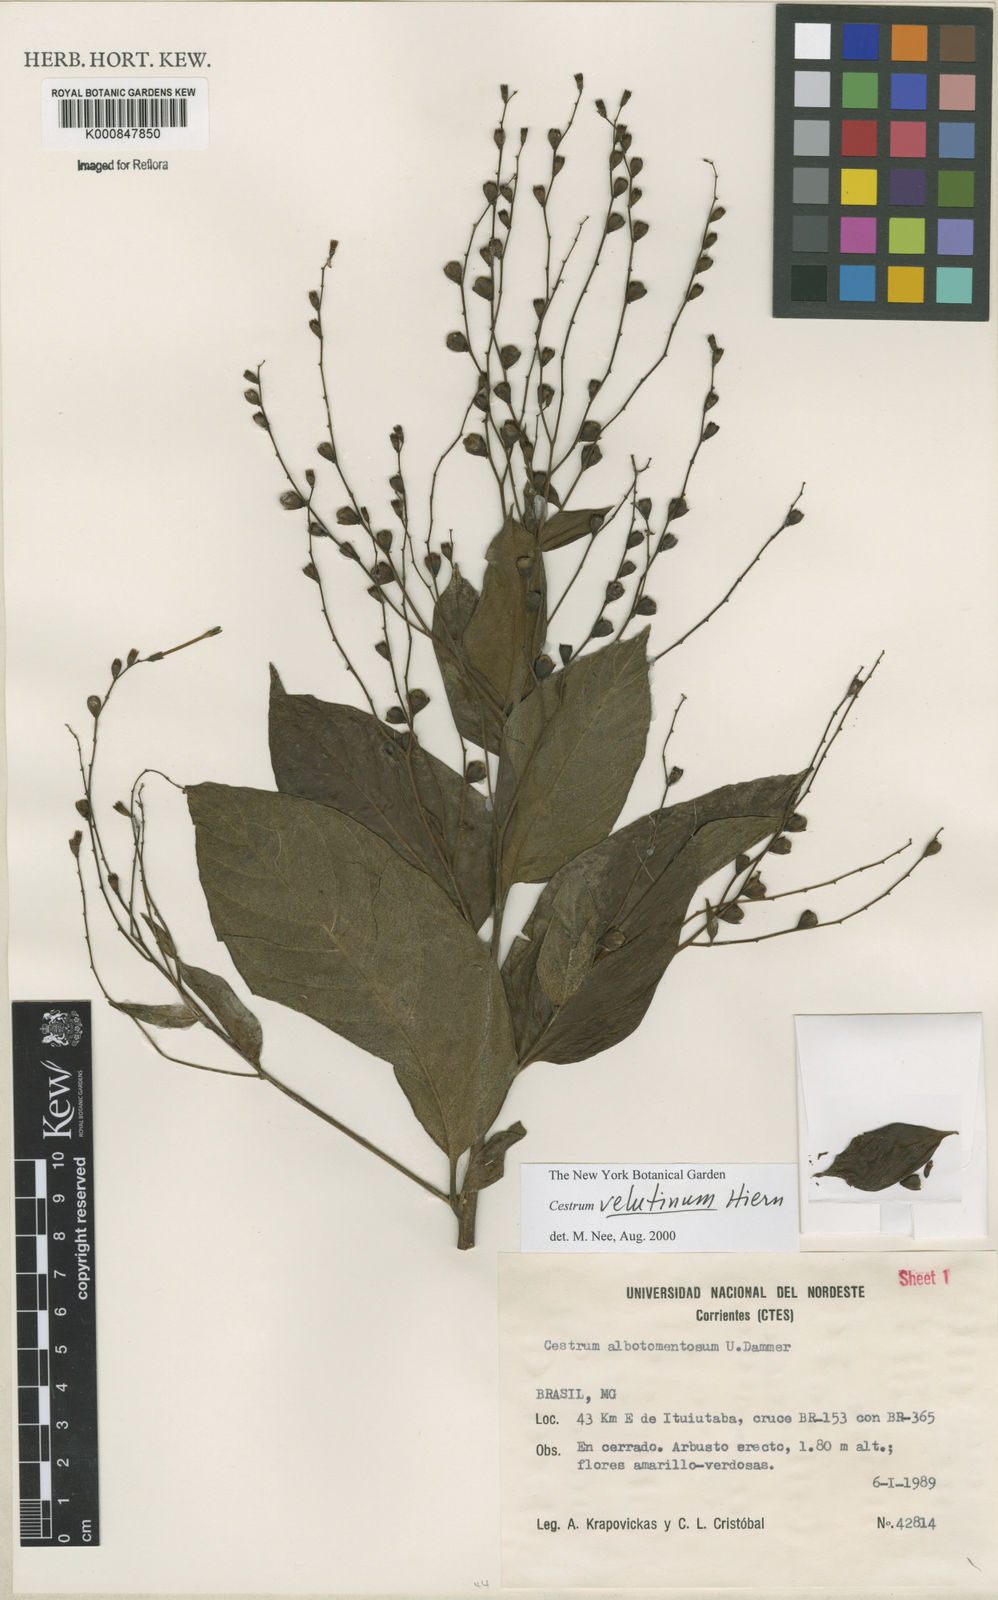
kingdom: Plantae
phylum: Tracheophyta
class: Magnoliopsida
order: Solanales
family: Solanaceae
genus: Cestrum
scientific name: Cestrum velutinum
